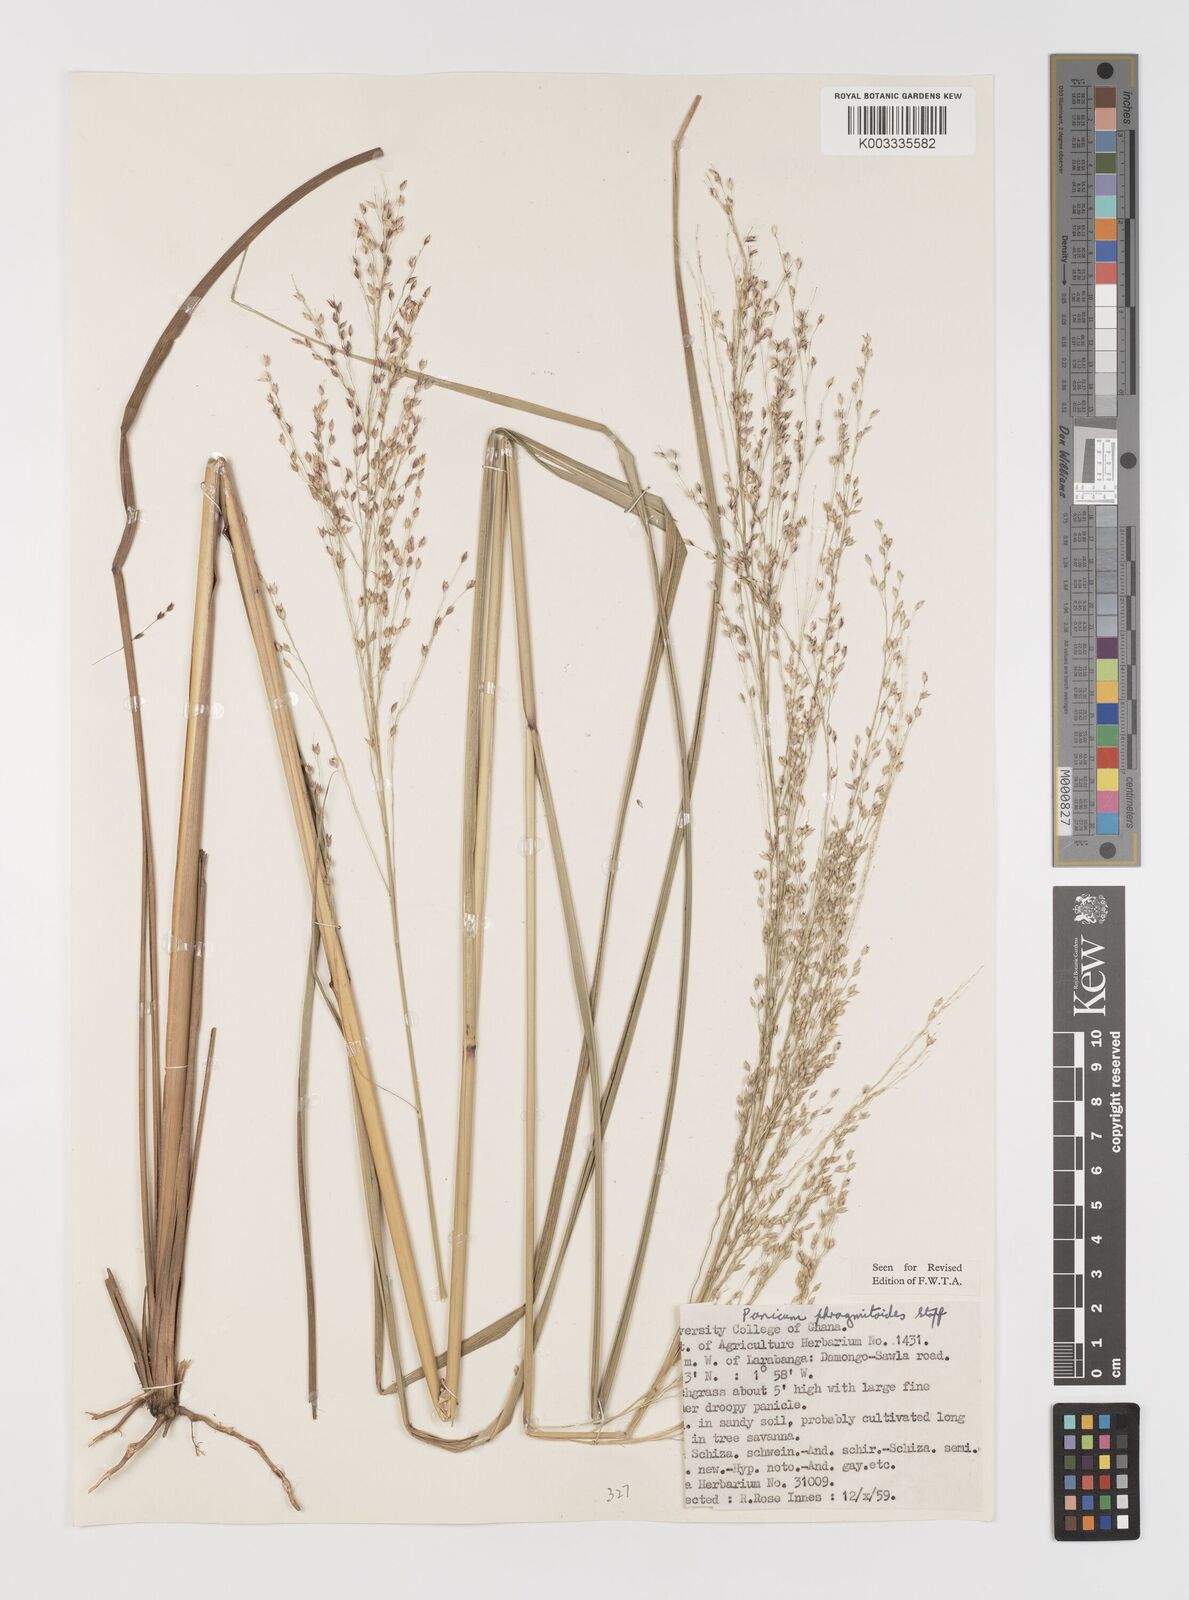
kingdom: Plantae
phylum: Tracheophyta
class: Liliopsida
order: Poales
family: Poaceae
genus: Panicum
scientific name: Panicum phragmitoides
